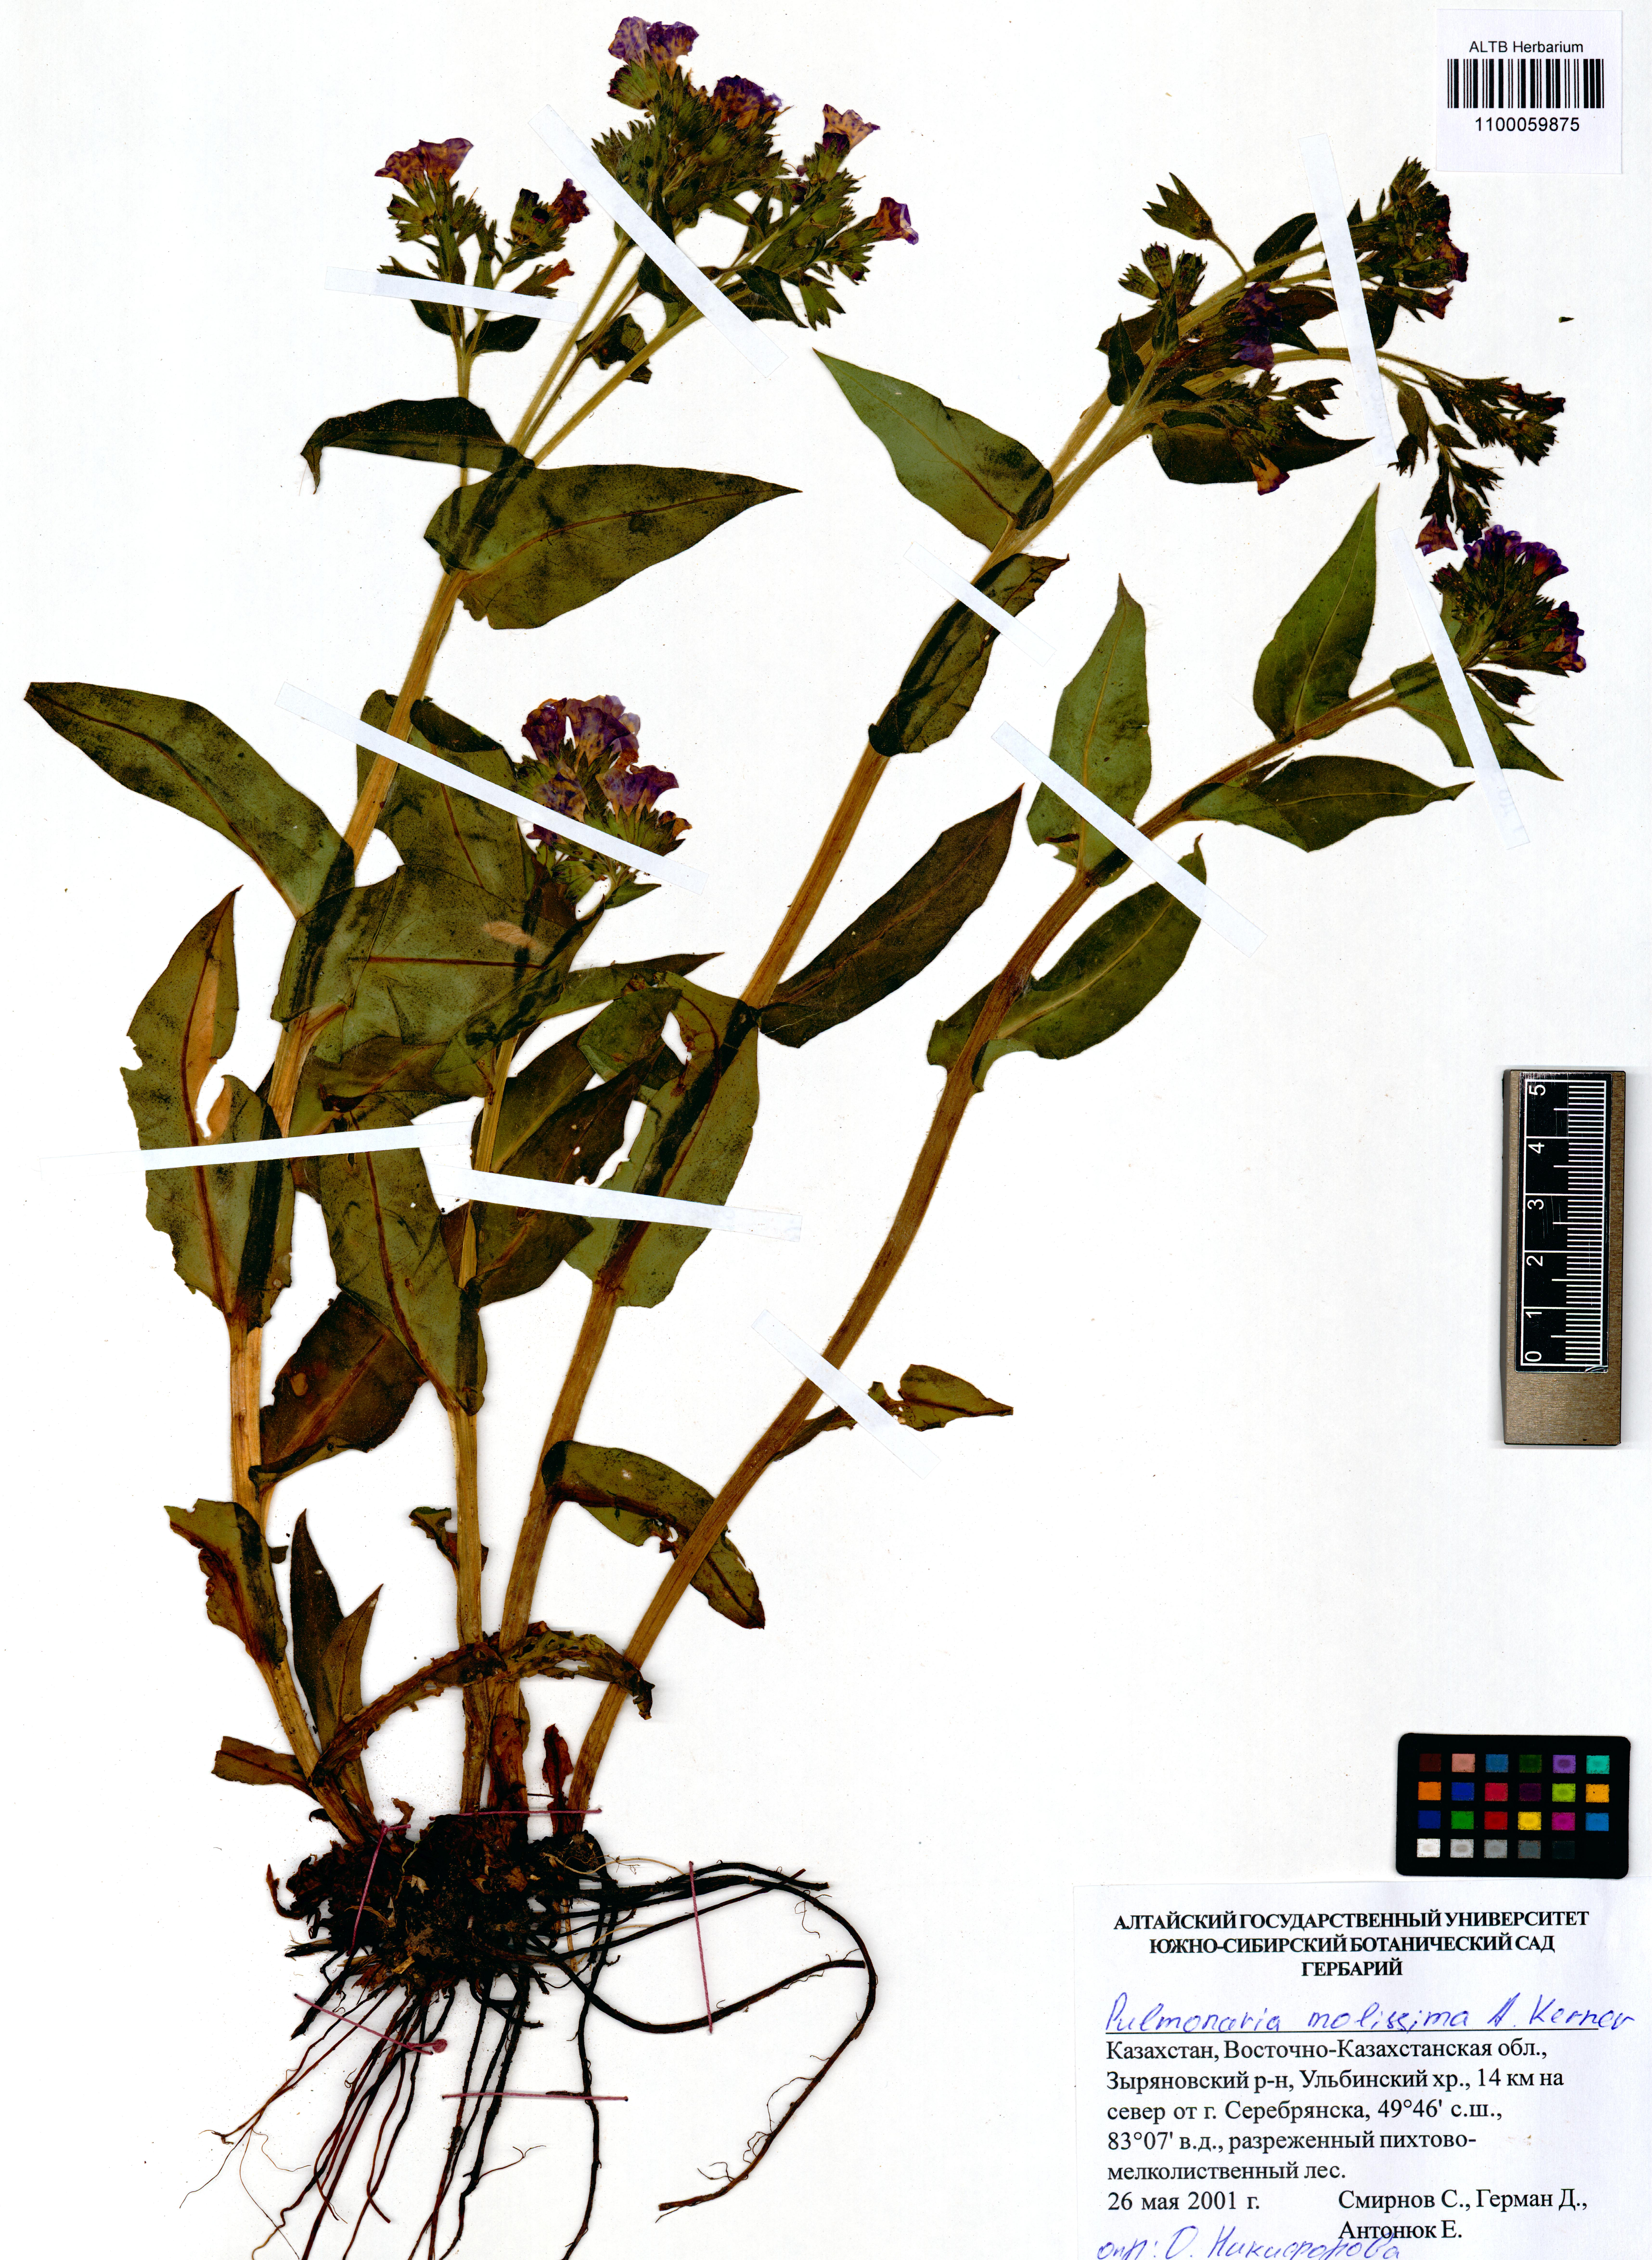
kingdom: Plantae
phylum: Tracheophyta
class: Magnoliopsida
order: Boraginales
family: Boraginaceae
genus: Pulmonaria
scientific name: Pulmonaria mollis
